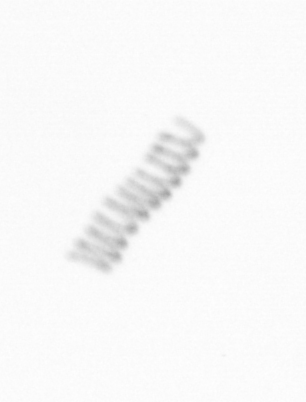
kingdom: Chromista
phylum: Ochrophyta
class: Bacillariophyceae
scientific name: Bacillariophyceae
